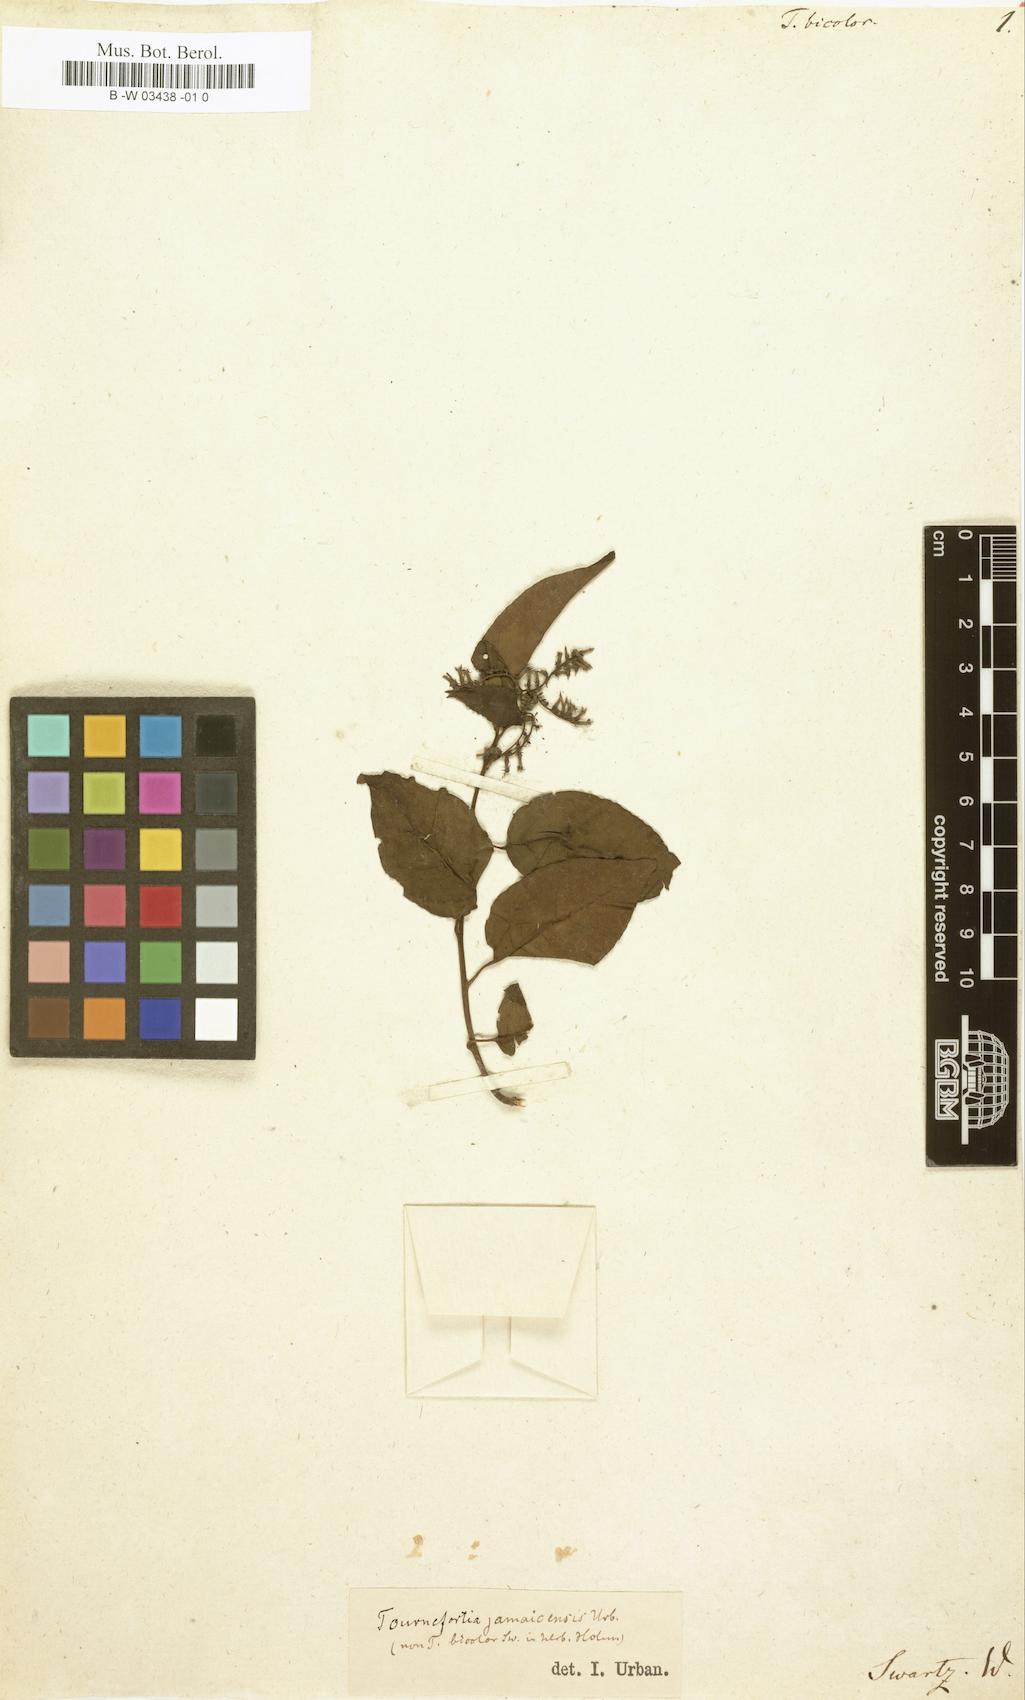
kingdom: Plantae
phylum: Tracheophyta
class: Magnoliopsida
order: Boraginales
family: Heliotropiaceae
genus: Heliotropium
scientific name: Heliotropium verdcourtii
